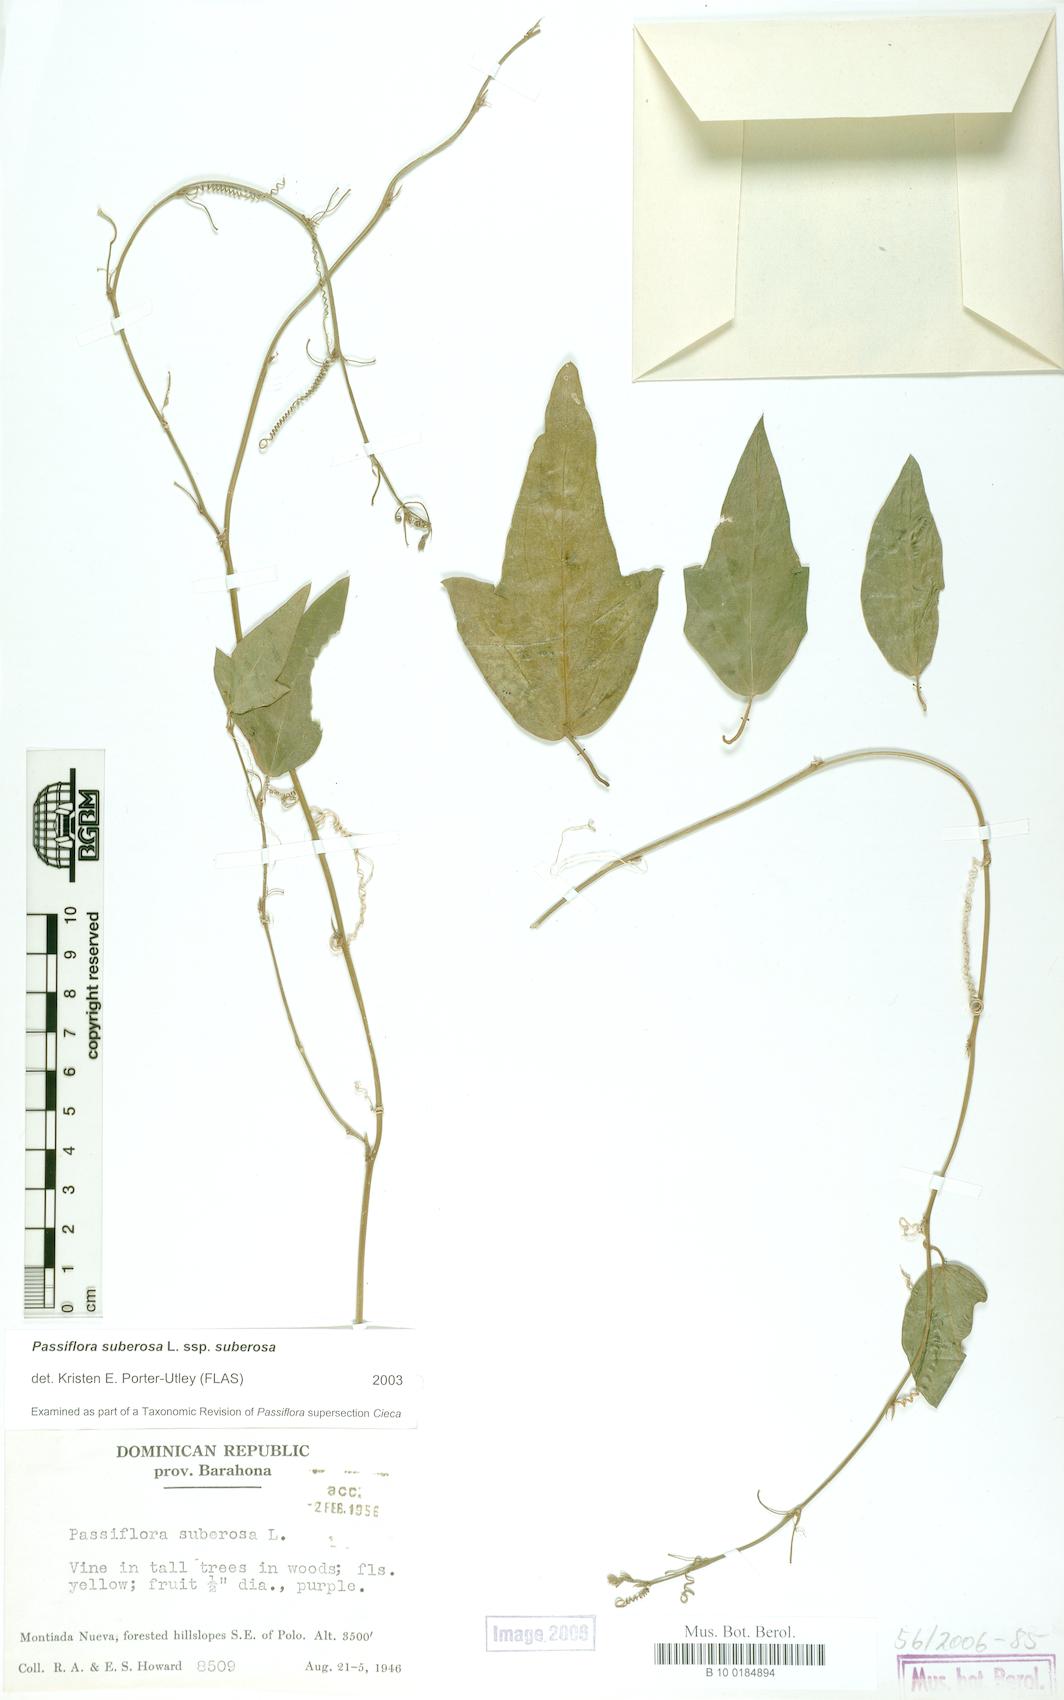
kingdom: Plantae
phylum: Tracheophyta
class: Magnoliopsida
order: Malpighiales
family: Passifloraceae
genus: Passiflora
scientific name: Passiflora suberosa
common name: Wild passionfruit
